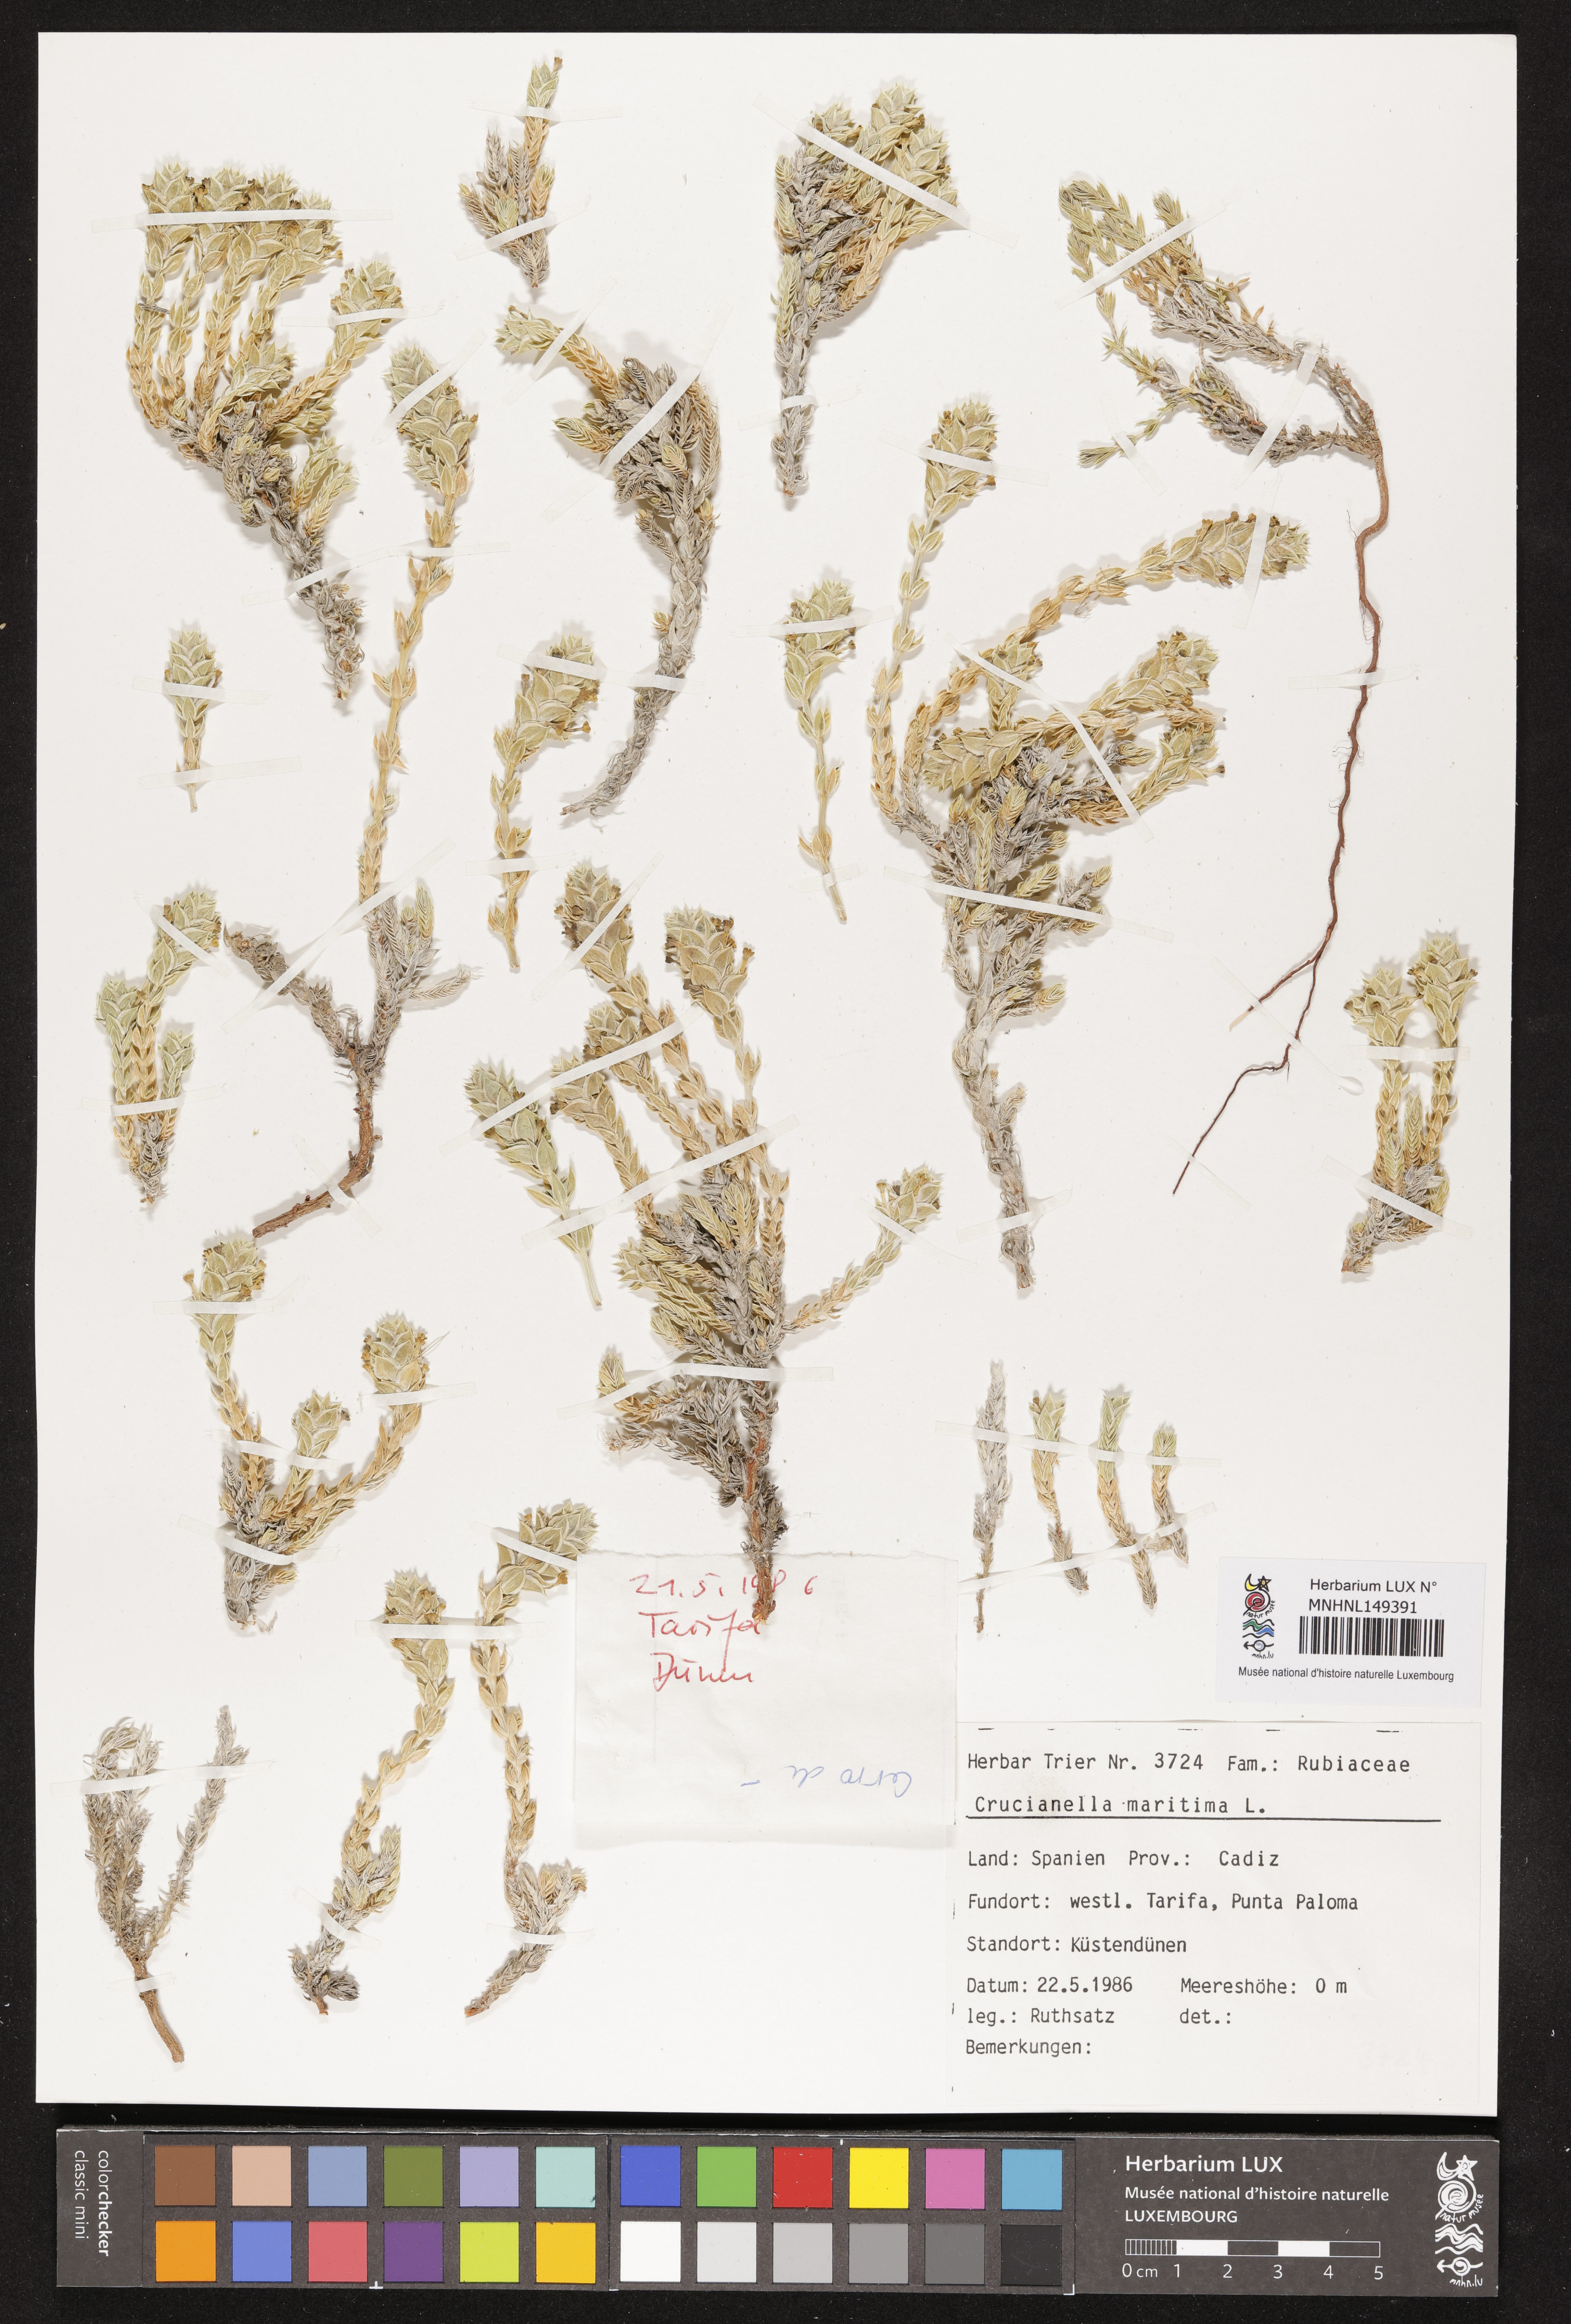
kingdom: Plantae
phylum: Tracheophyta
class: Magnoliopsida
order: Gentianales
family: Rubiaceae
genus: Crucianella
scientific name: Crucianella maritima
